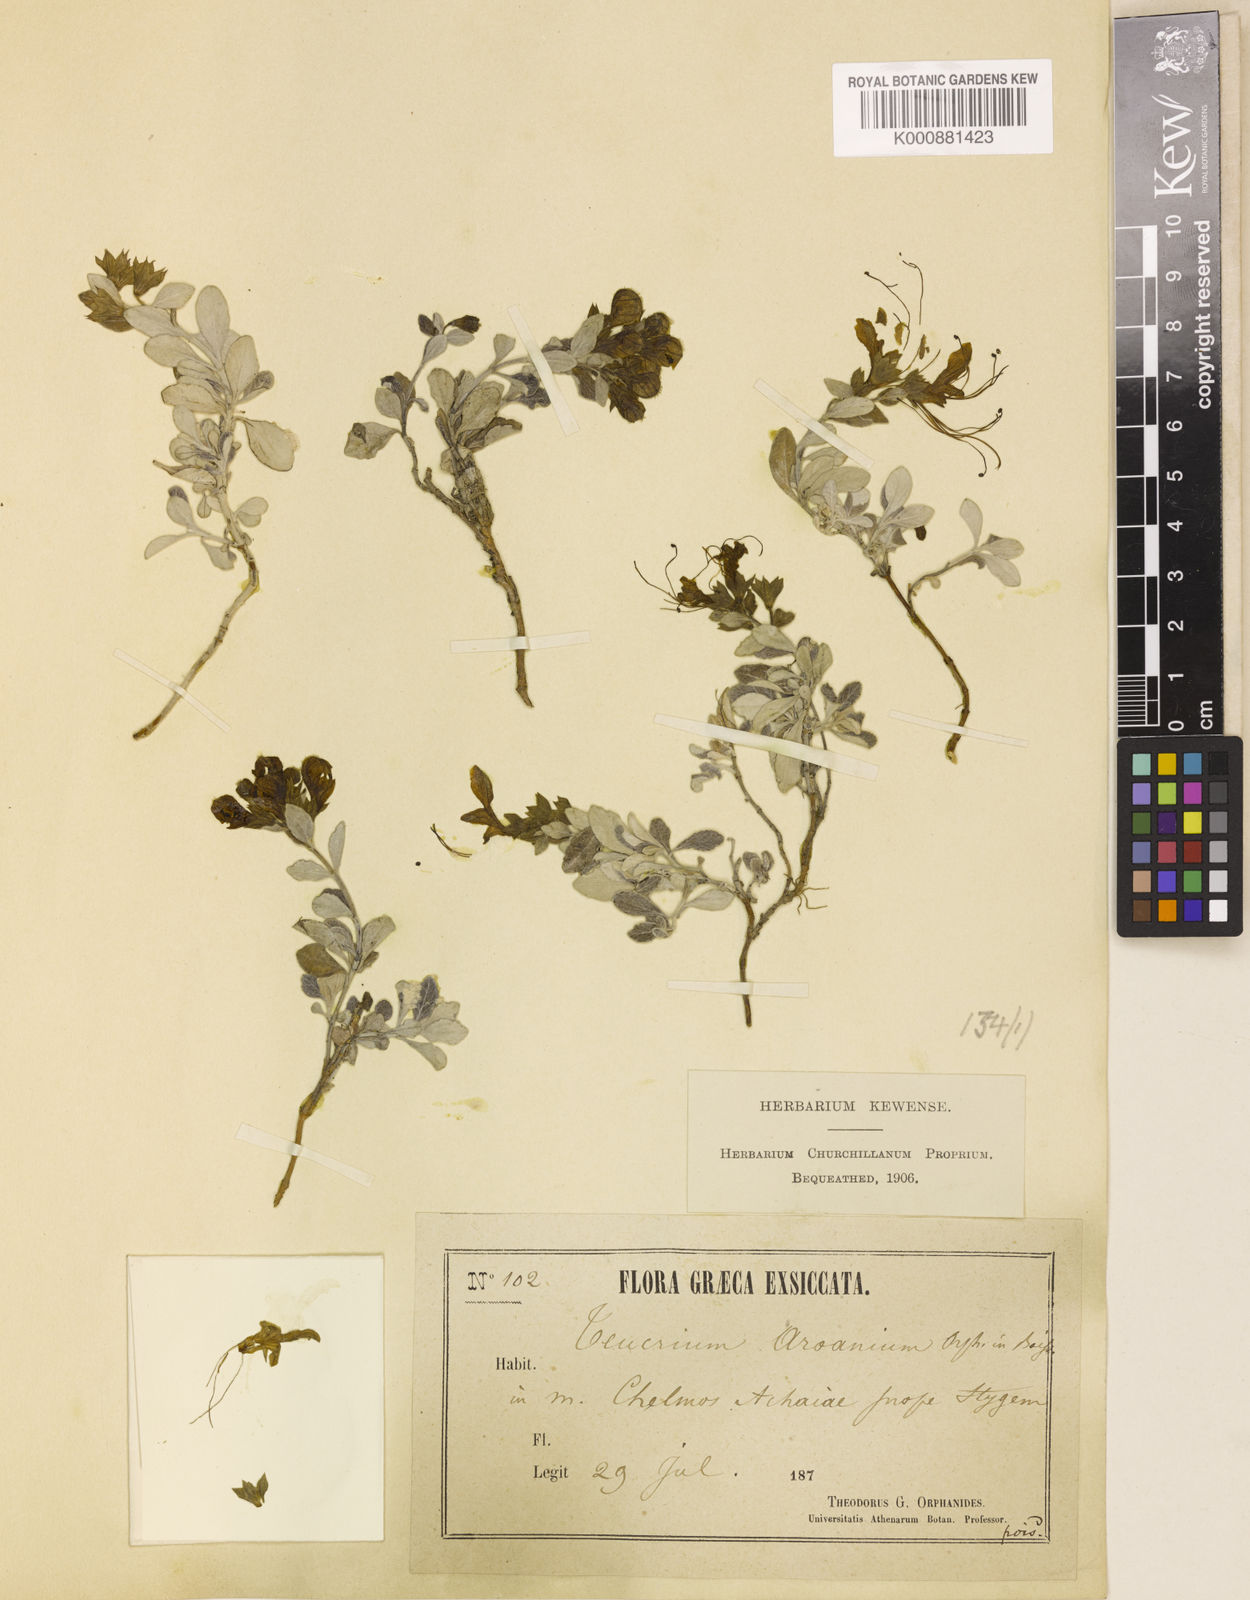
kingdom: Plantae
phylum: Tracheophyta
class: Magnoliopsida
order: Lamiales
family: Lamiaceae
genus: Teucrium
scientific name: Teucrium aroanium
